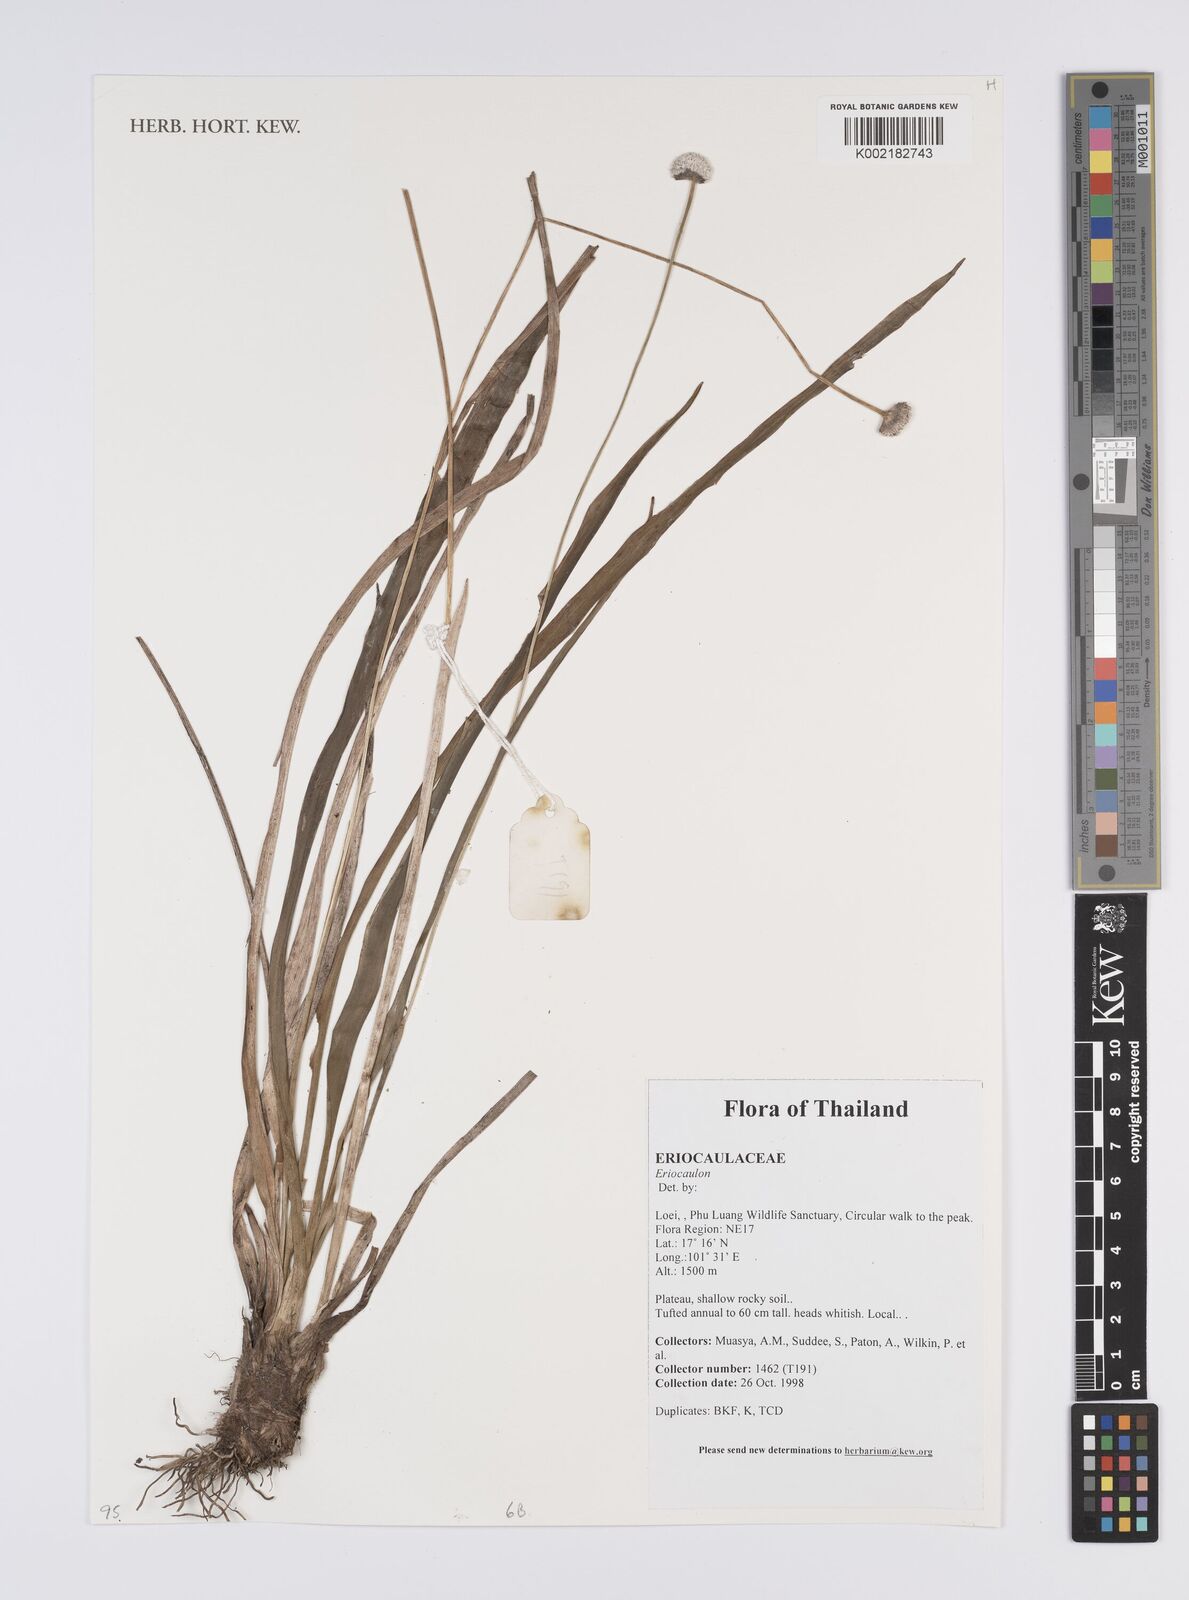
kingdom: Plantae
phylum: Tracheophyta
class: Liliopsida
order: Poales
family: Eriocaulaceae
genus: Eriocaulon
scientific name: Eriocaulon
